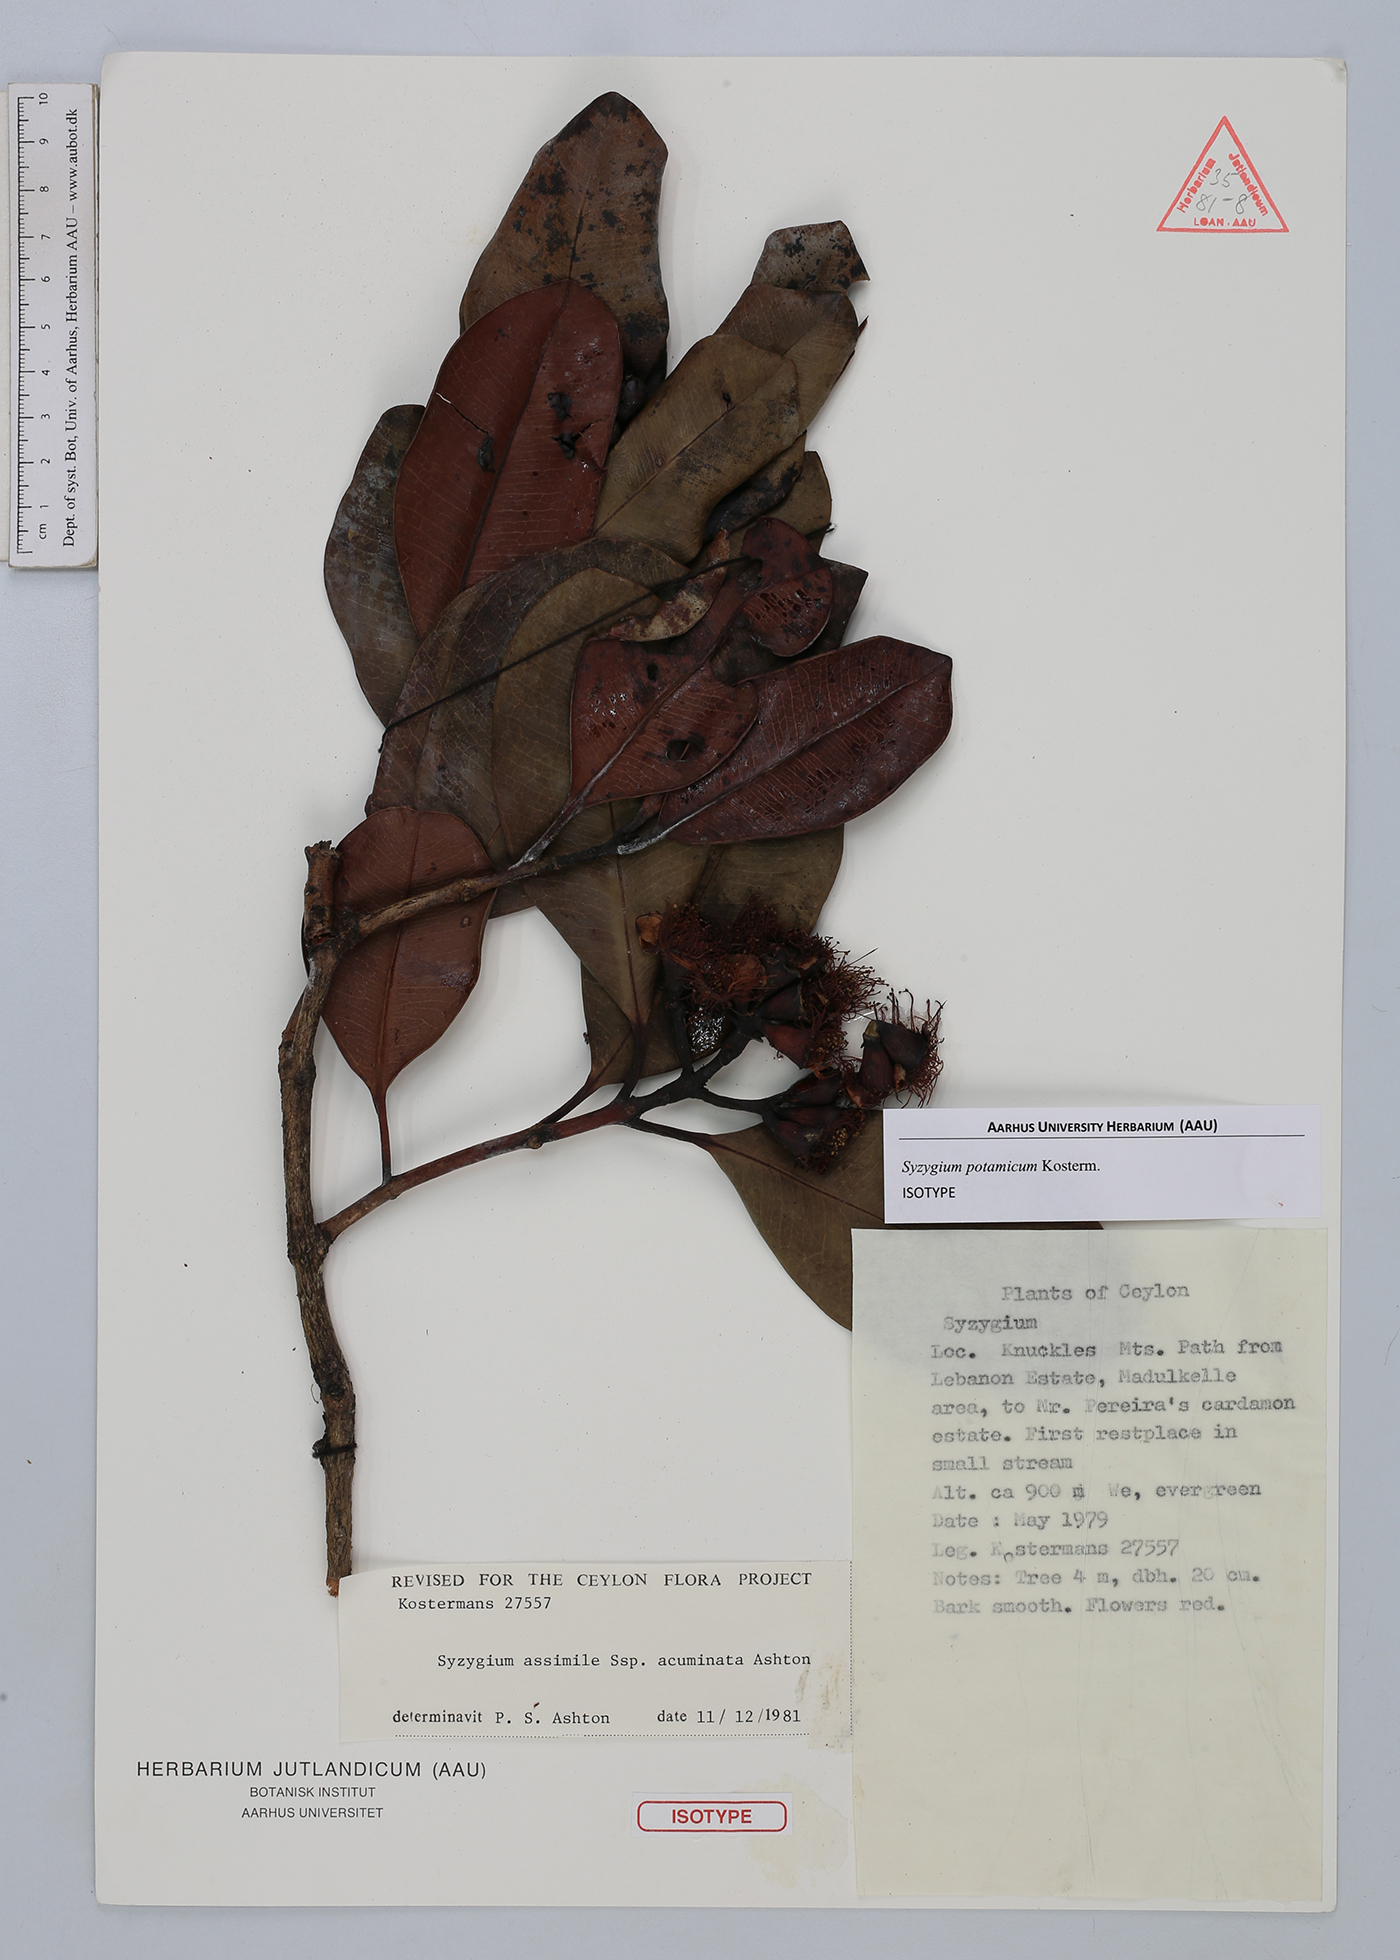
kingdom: Plantae
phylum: Tracheophyta
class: Magnoliopsida
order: Myrtales
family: Myrtaceae
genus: Syzygium
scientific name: Syzygium potamicum
